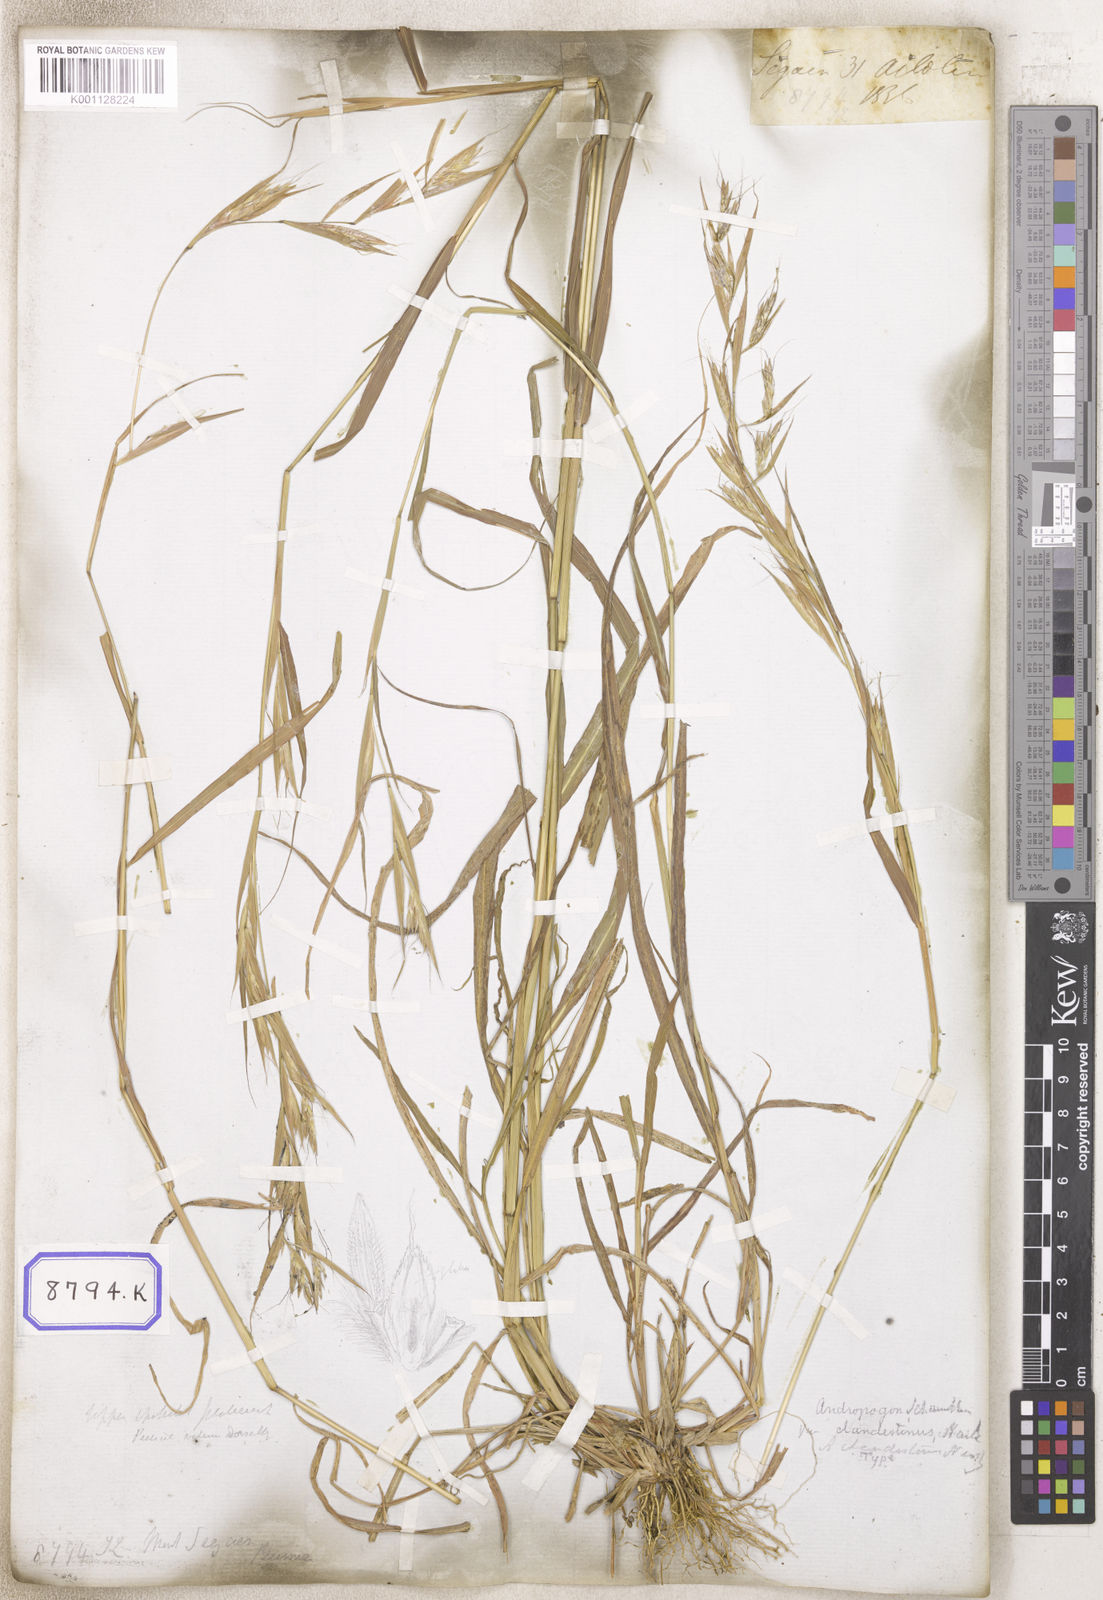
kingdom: Plantae
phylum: Tracheophyta
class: Liliopsida
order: Poales
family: Poaceae
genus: Cymbopogon
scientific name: Cymbopogon schoenanthus
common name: Geranium grass
